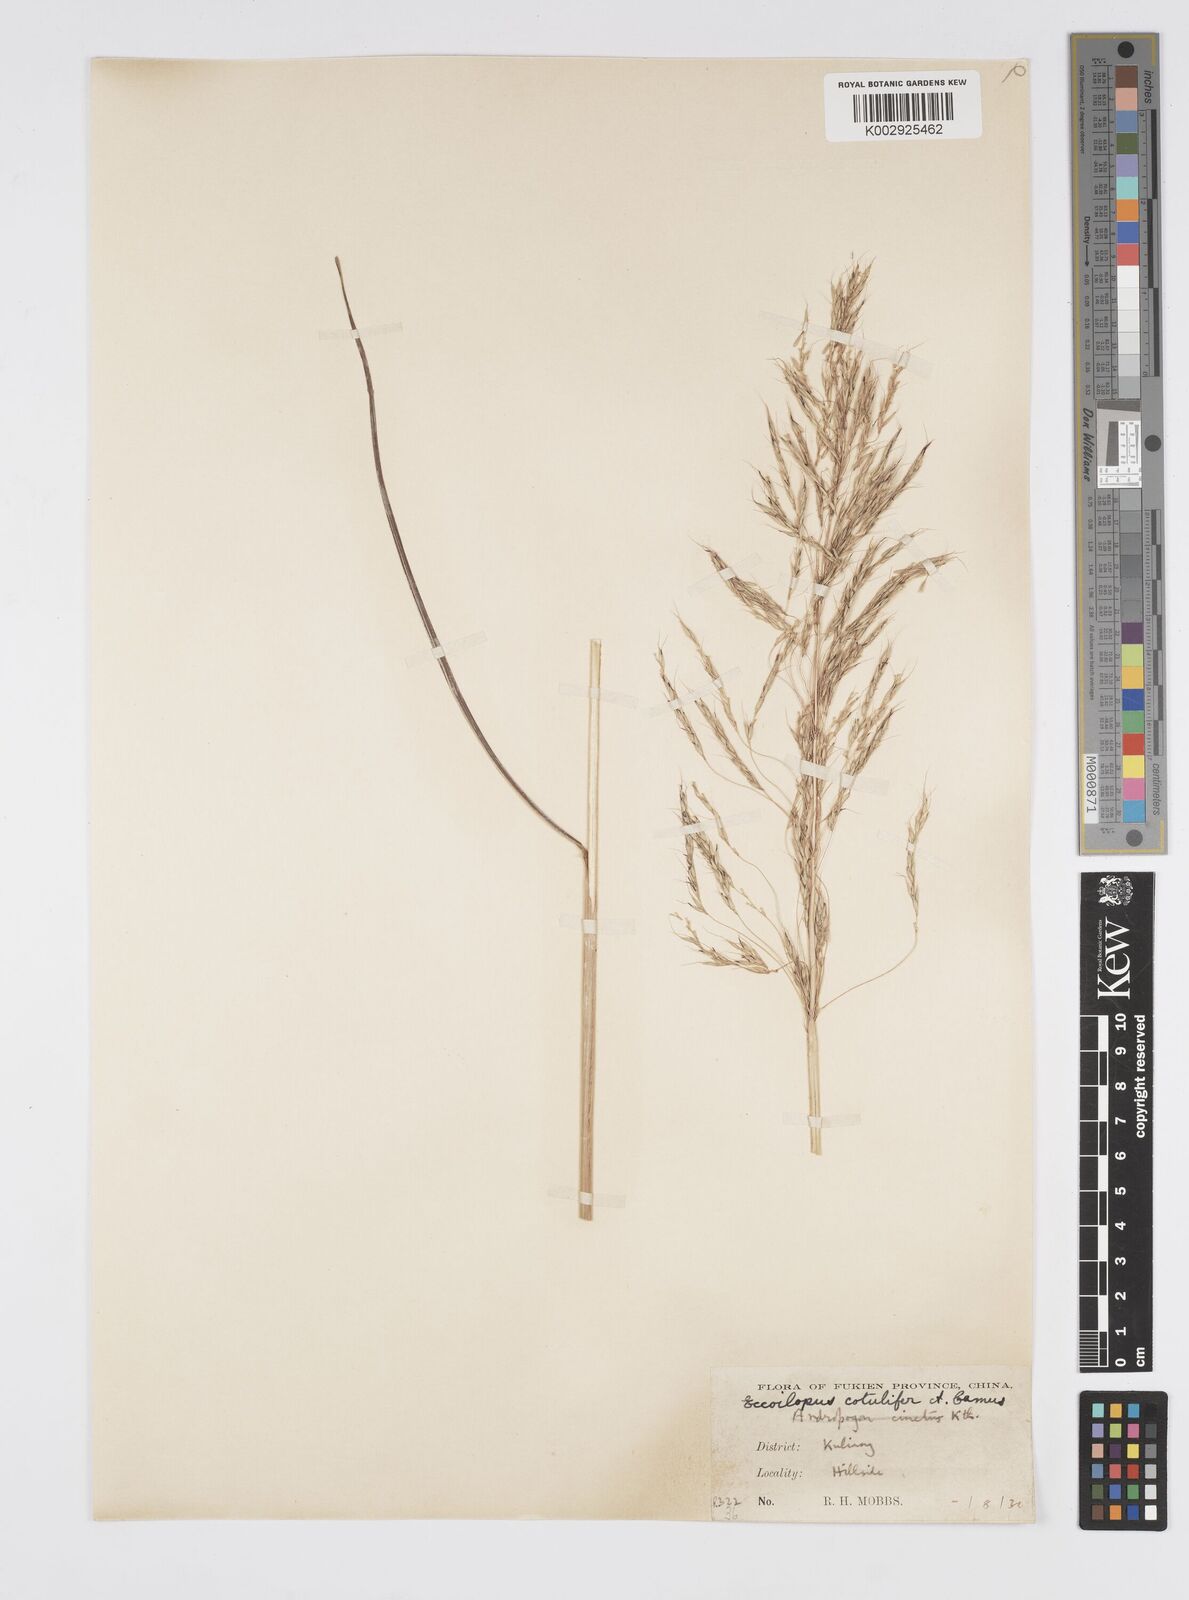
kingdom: Plantae
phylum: Tracheophyta
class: Liliopsida
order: Poales
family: Poaceae
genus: Spodiopogon
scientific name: Spodiopogon cotulifer
